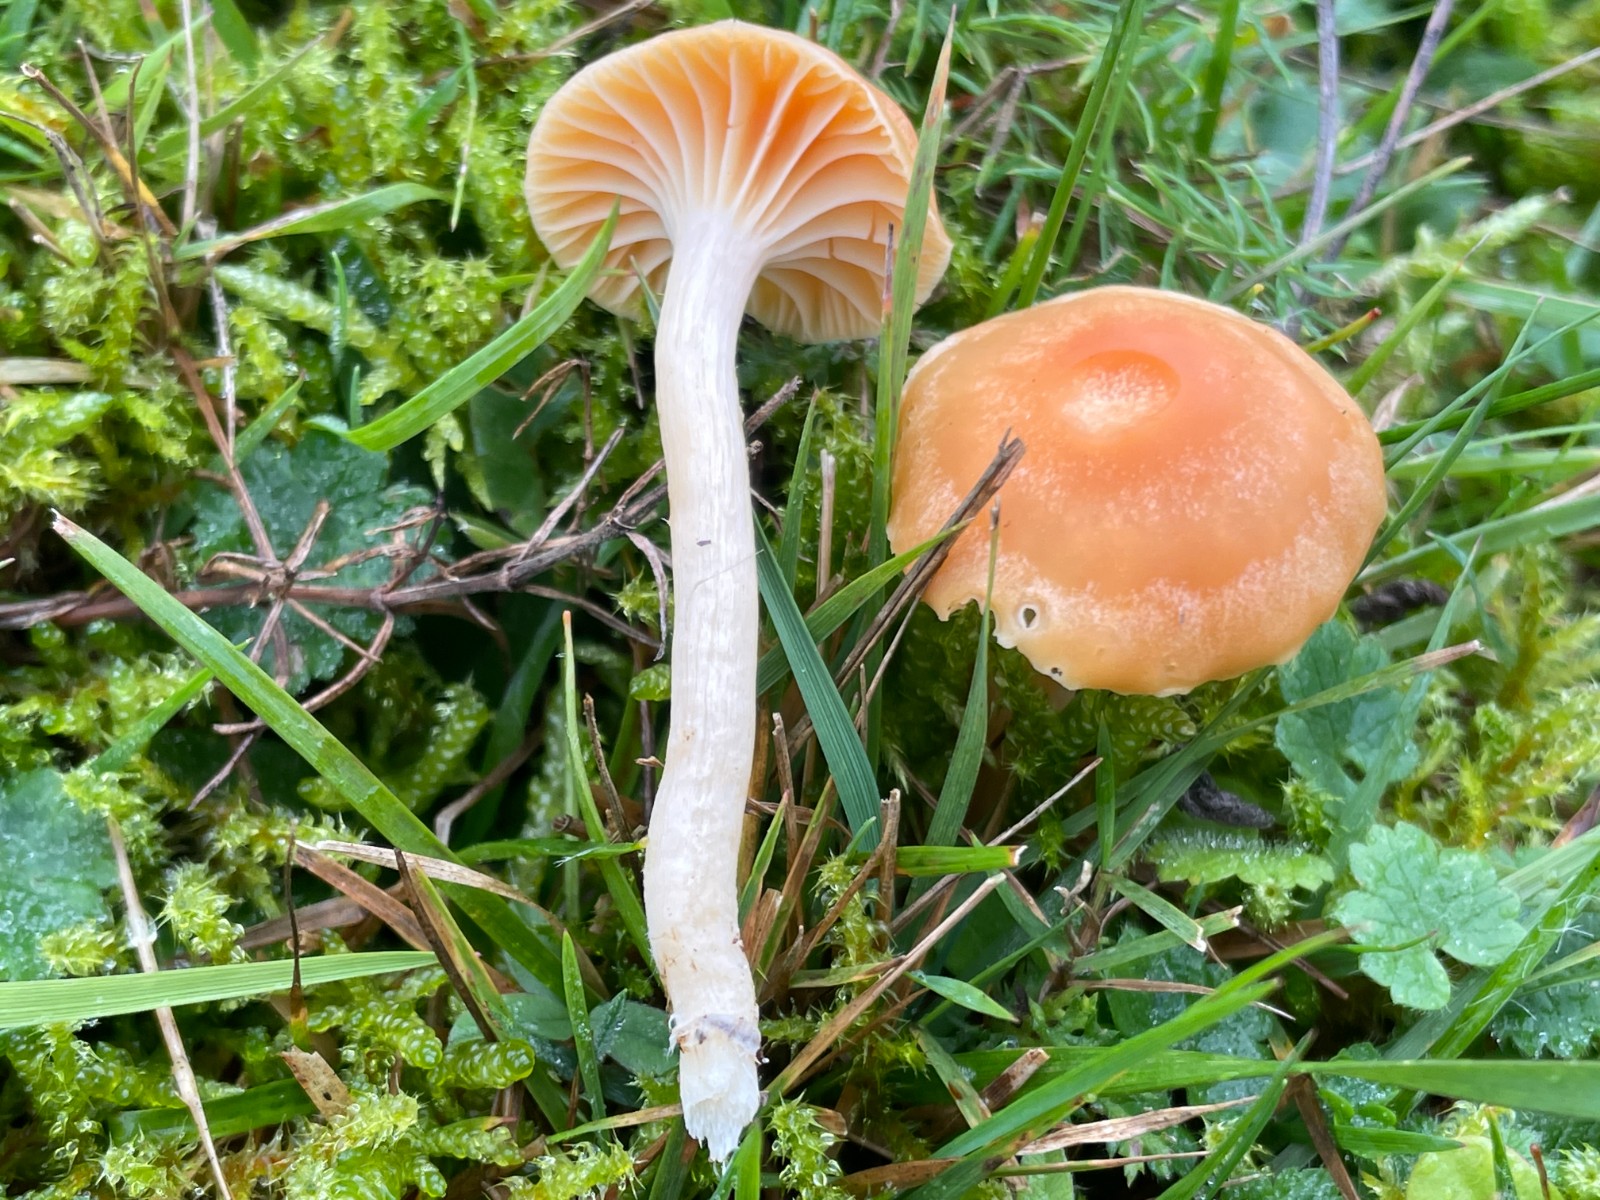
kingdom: Fungi
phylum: Basidiomycota
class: Agaricomycetes
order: Agaricales
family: Hygrophoraceae
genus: Cuphophyllus
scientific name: Cuphophyllus pratensis
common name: eng-vokshat
